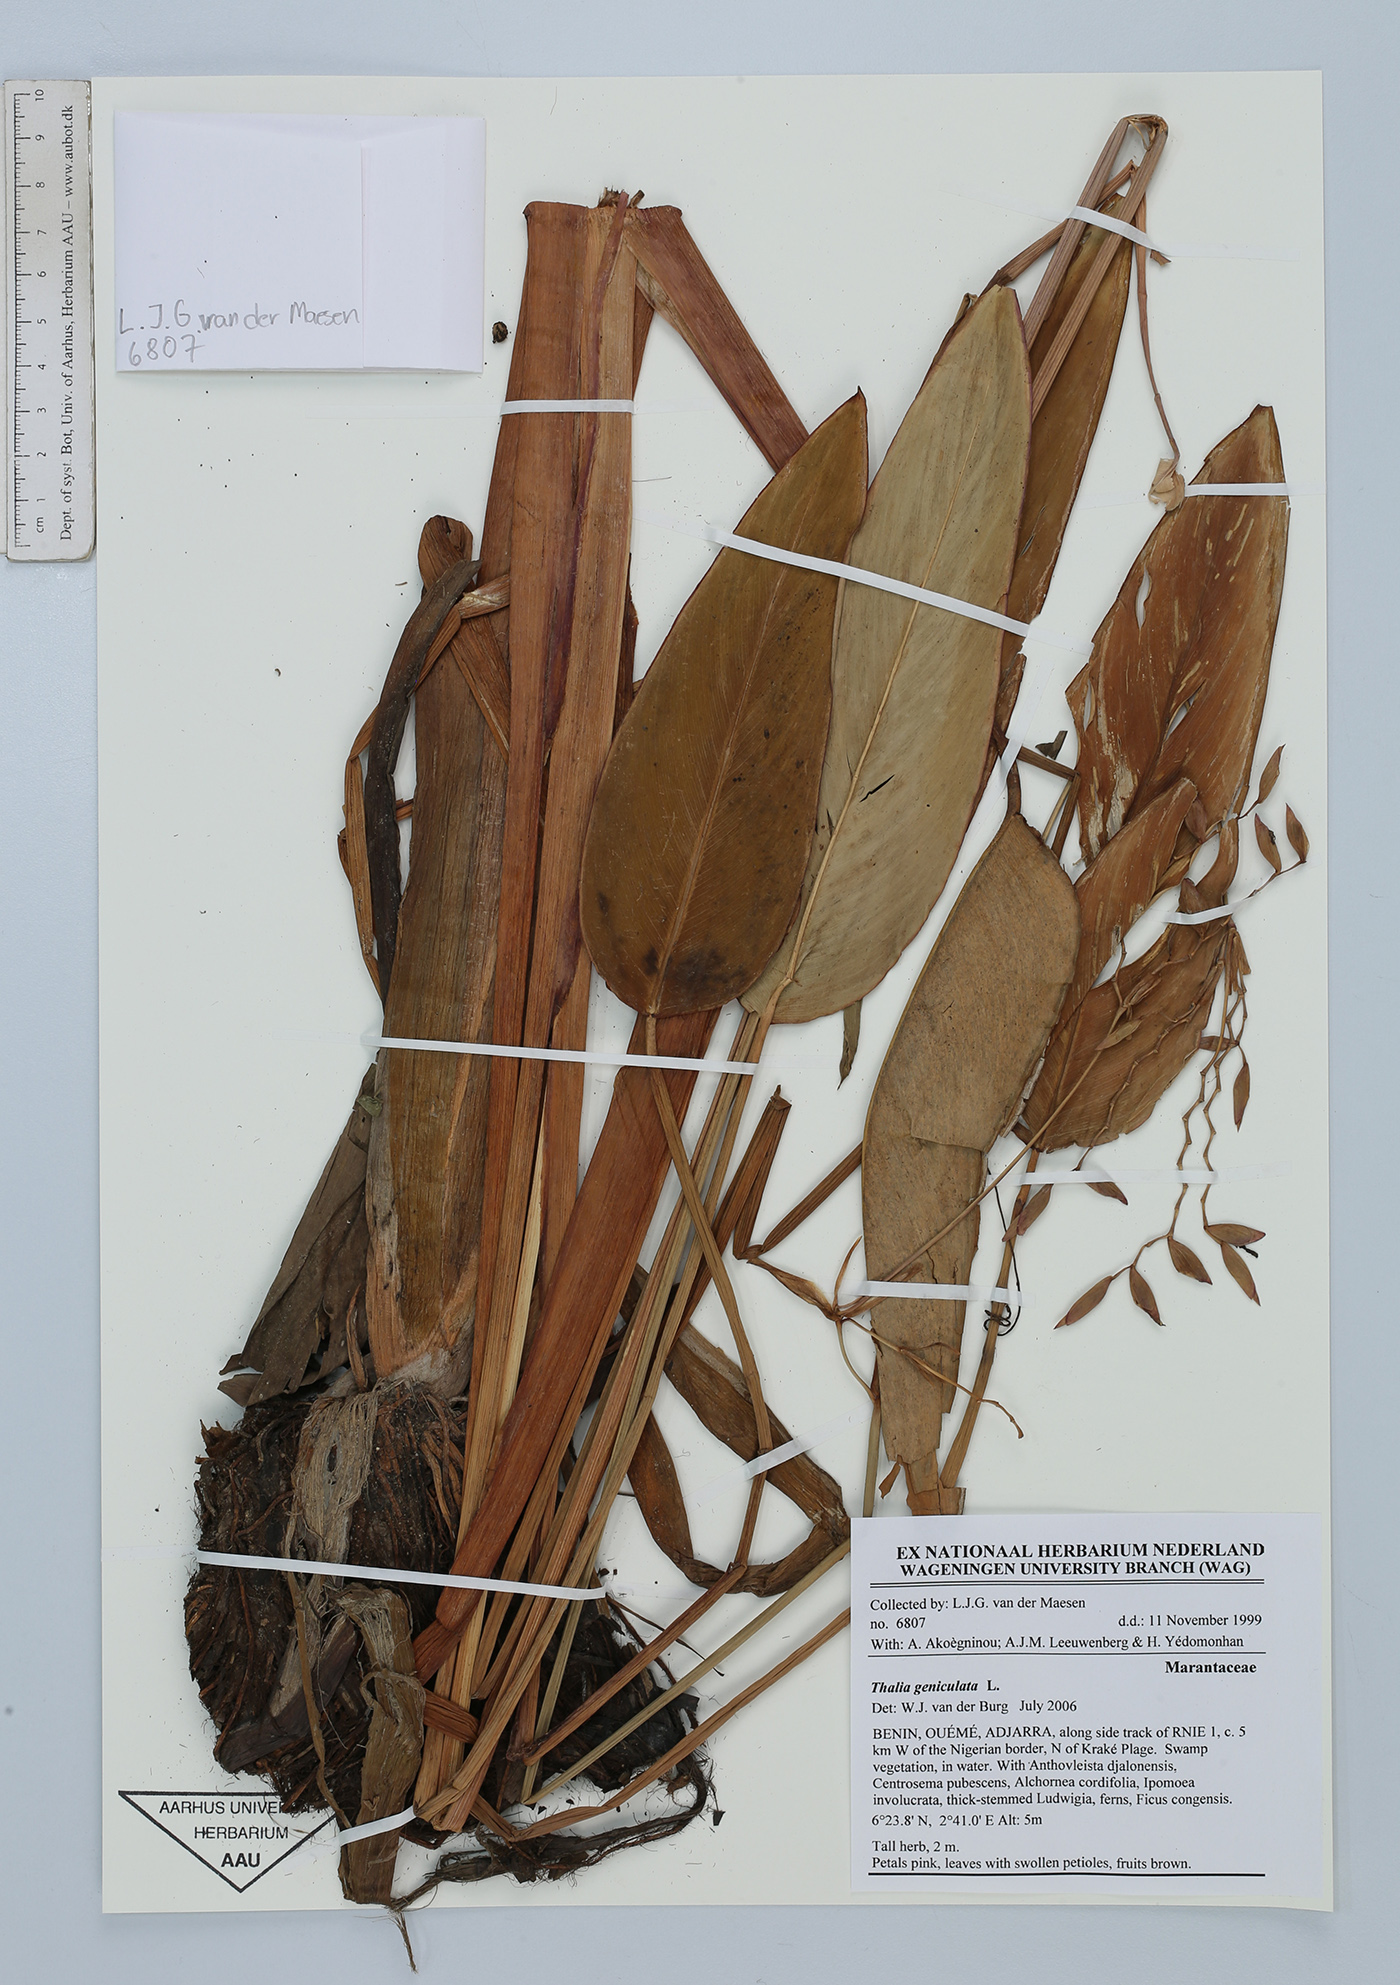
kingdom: Plantae
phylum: Tracheophyta
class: Liliopsida
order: Zingiberales
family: Marantaceae
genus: Thalia
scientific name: Thalia geniculata
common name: Arrowroot
